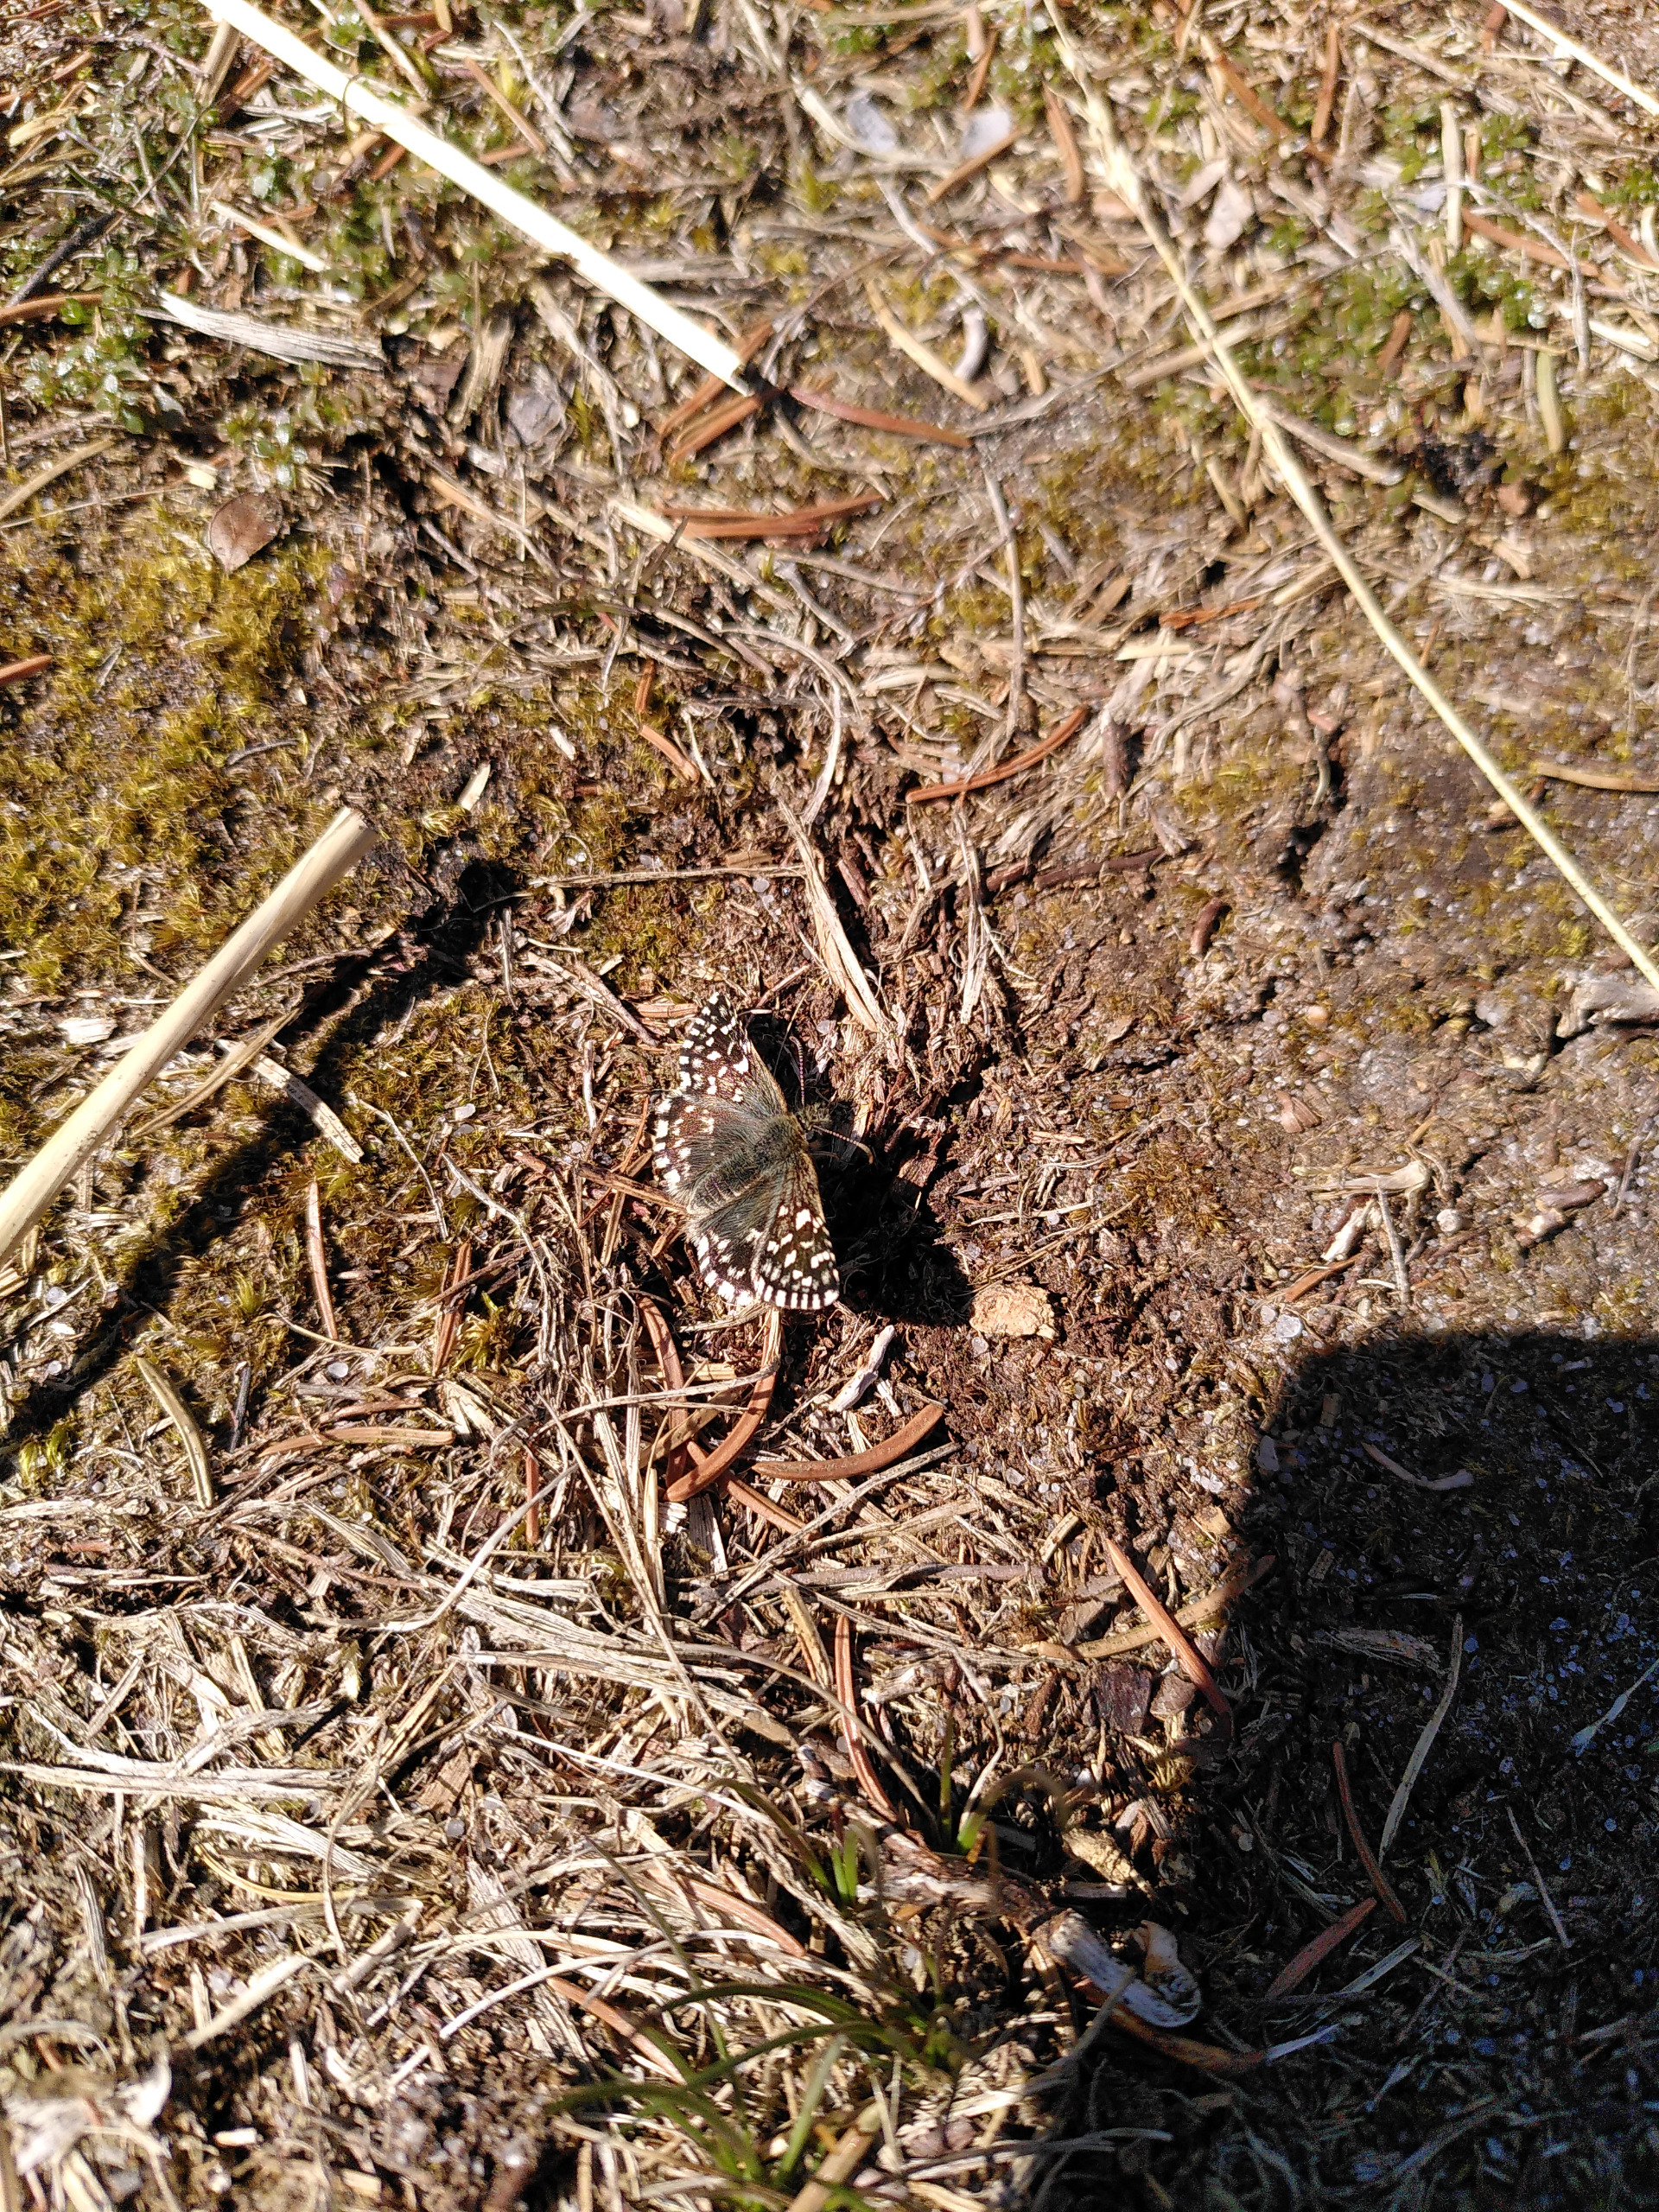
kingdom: Animalia
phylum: Arthropoda
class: Insecta
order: Lepidoptera
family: Hesperiidae
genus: Pyrgus
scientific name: Pyrgus malvae
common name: Spættet bredpande
